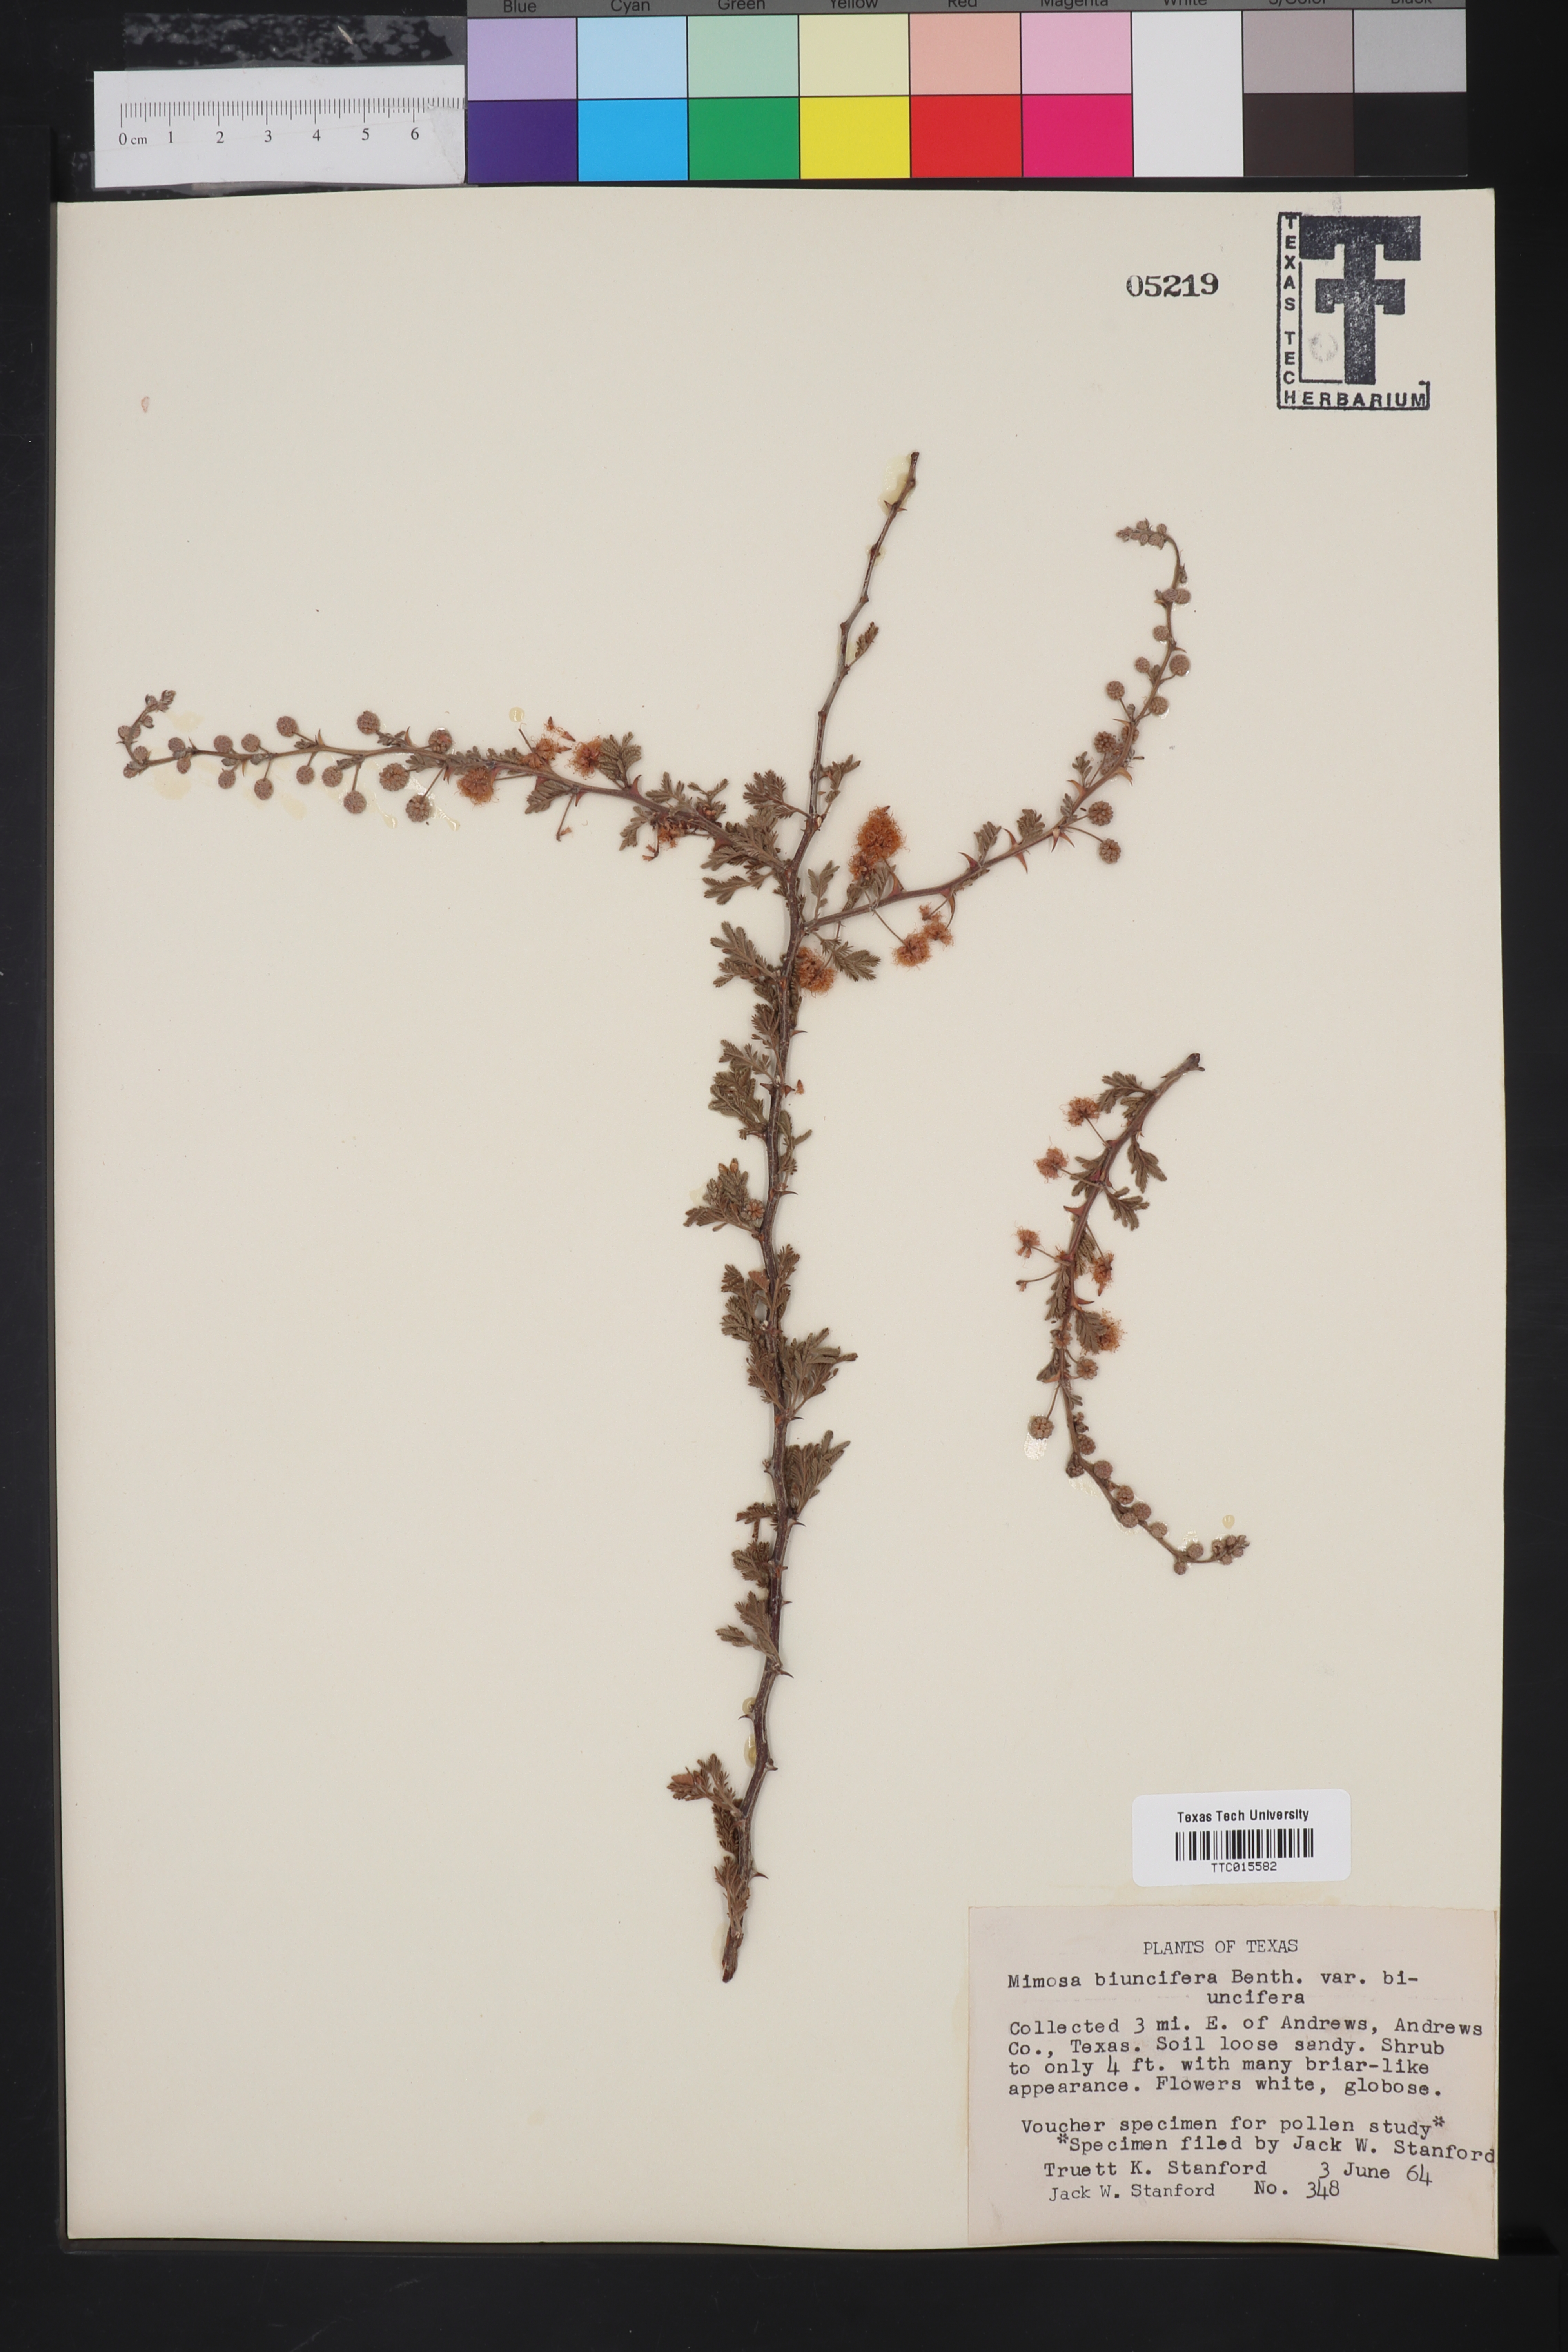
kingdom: Plantae
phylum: Tracheophyta
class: Magnoliopsida
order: Fabales
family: Fabaceae
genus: Mimosa
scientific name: Mimosa biuncifera
